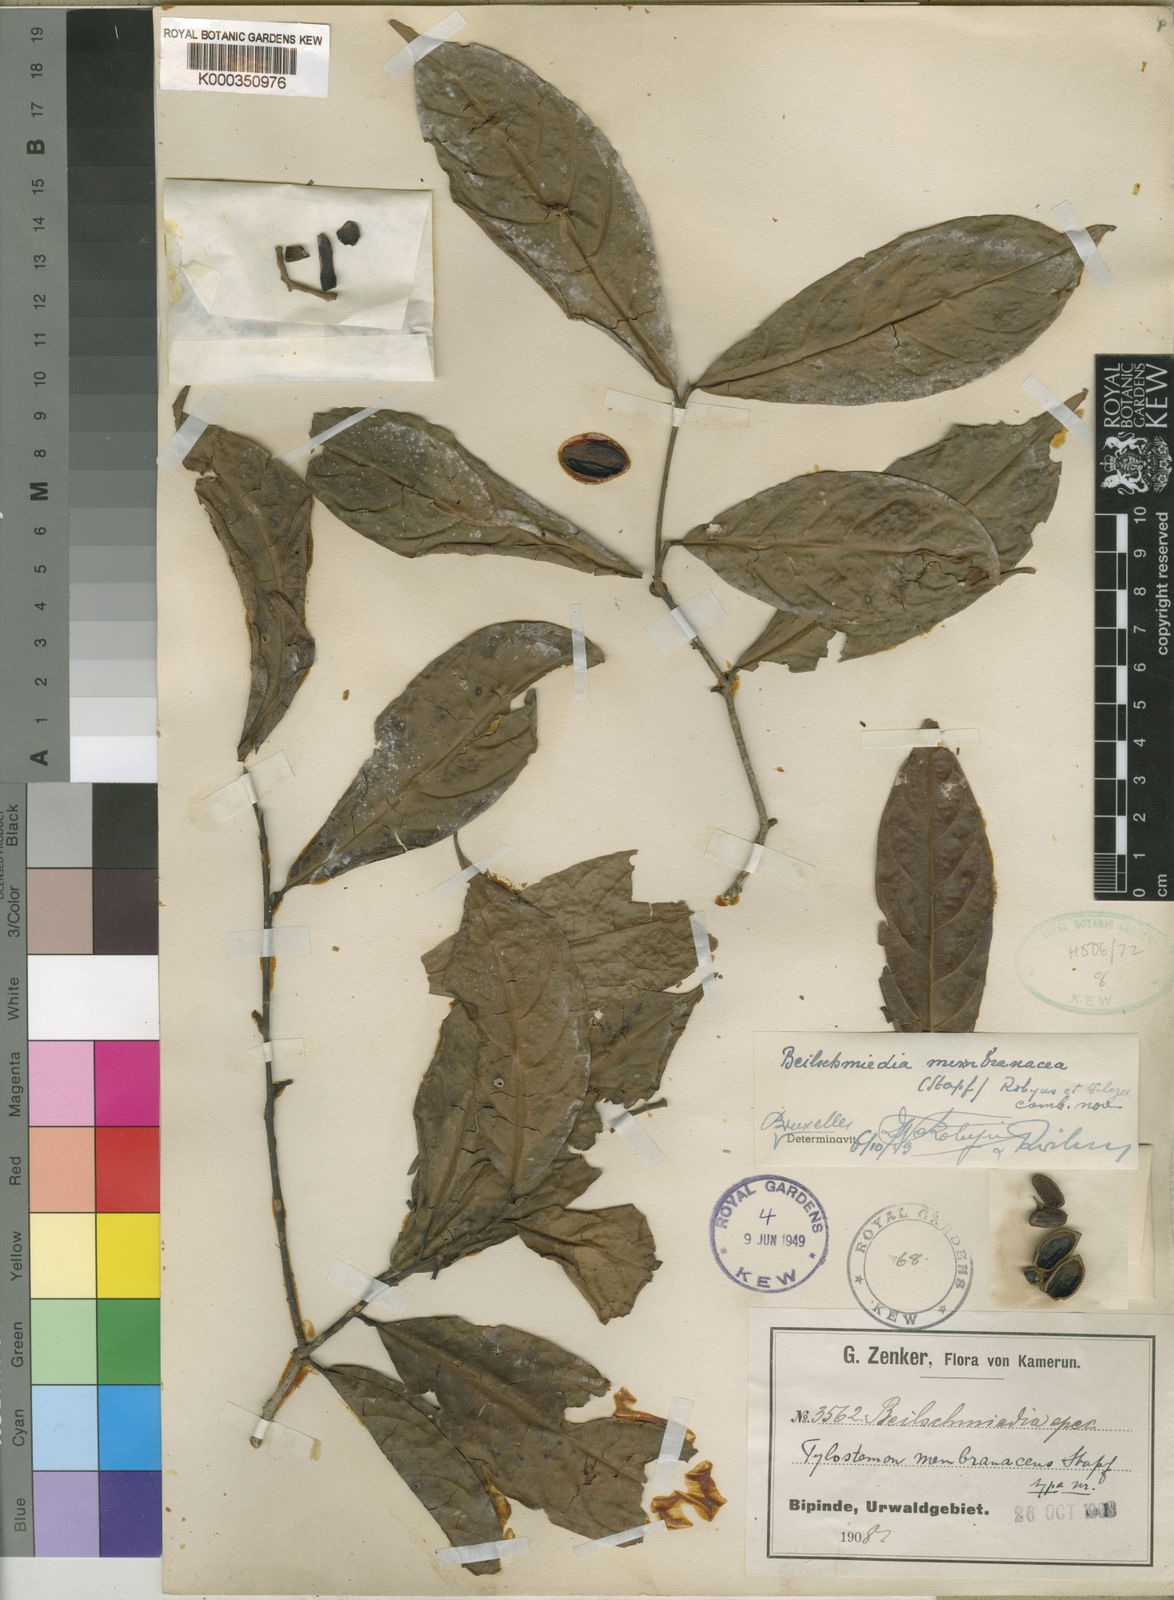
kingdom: Plantae
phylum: Tracheophyta
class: Magnoliopsida
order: Laurales
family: Lauraceae
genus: Beilschmiedia
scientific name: Beilschmiedia
